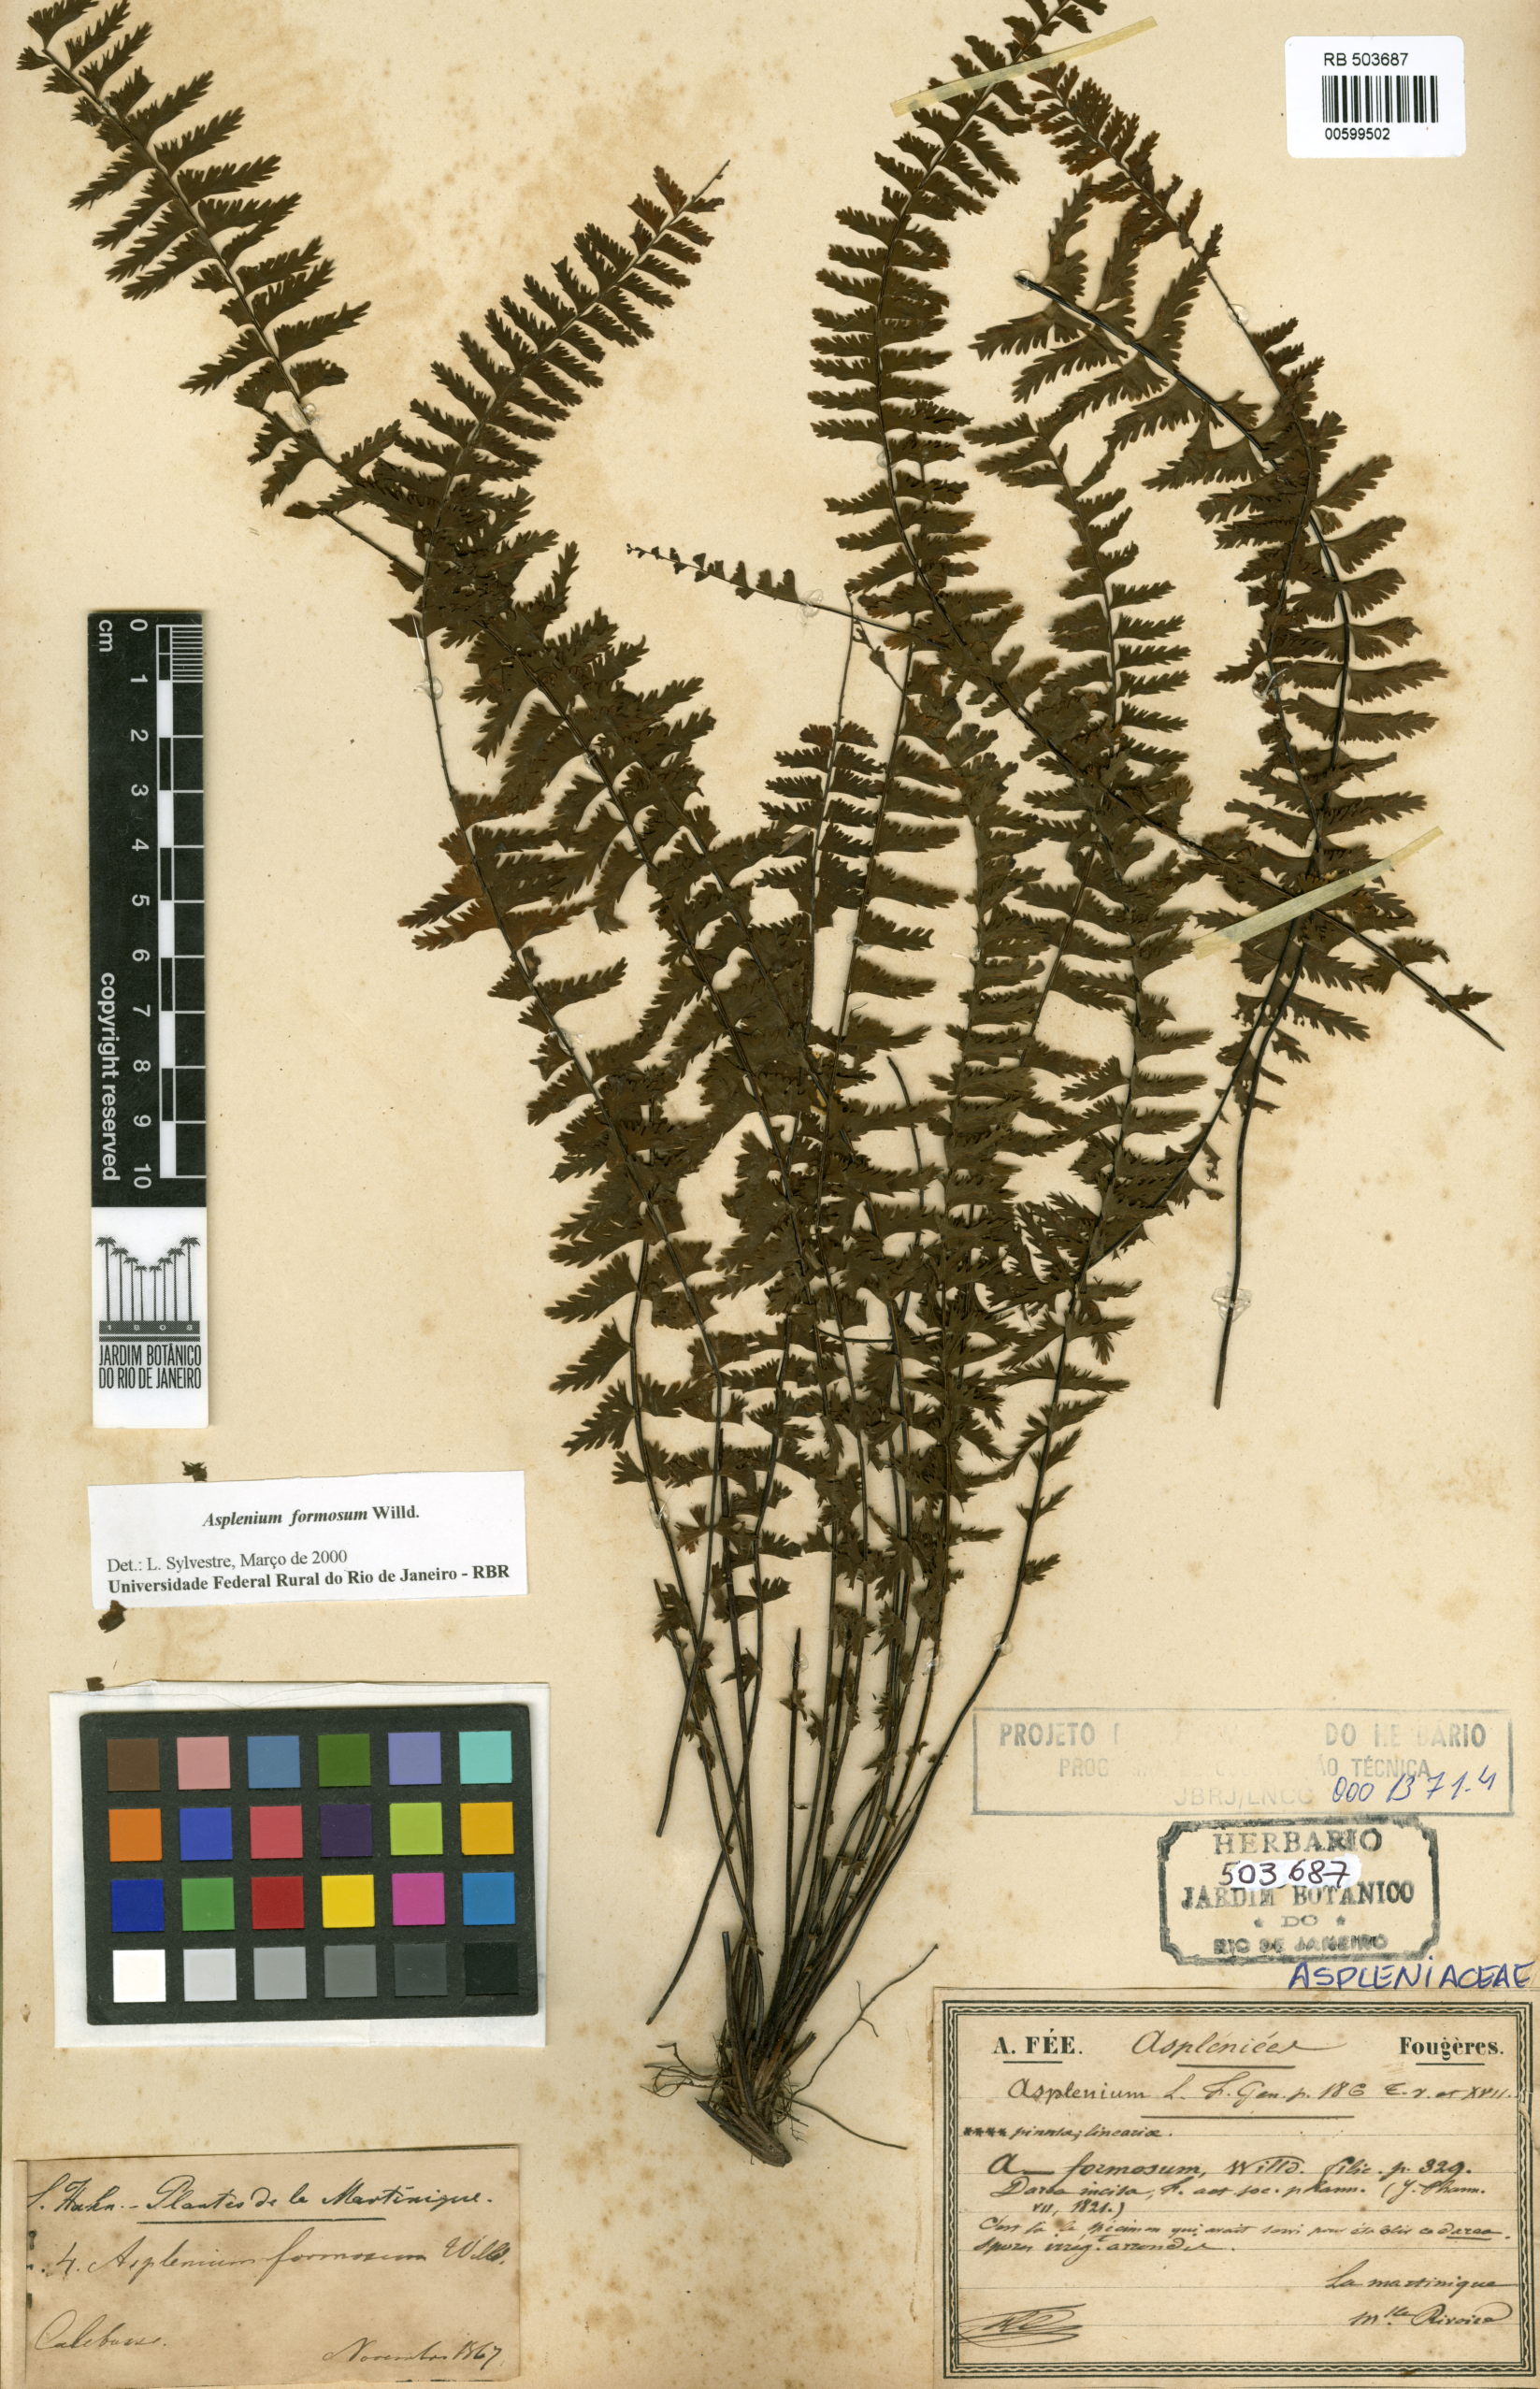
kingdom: Plantae
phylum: Tracheophyta
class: Polypodiopsida
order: Polypodiales
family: Aspleniaceae
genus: Asplenium
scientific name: Asplenium formosum
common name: Showy spleenwort
